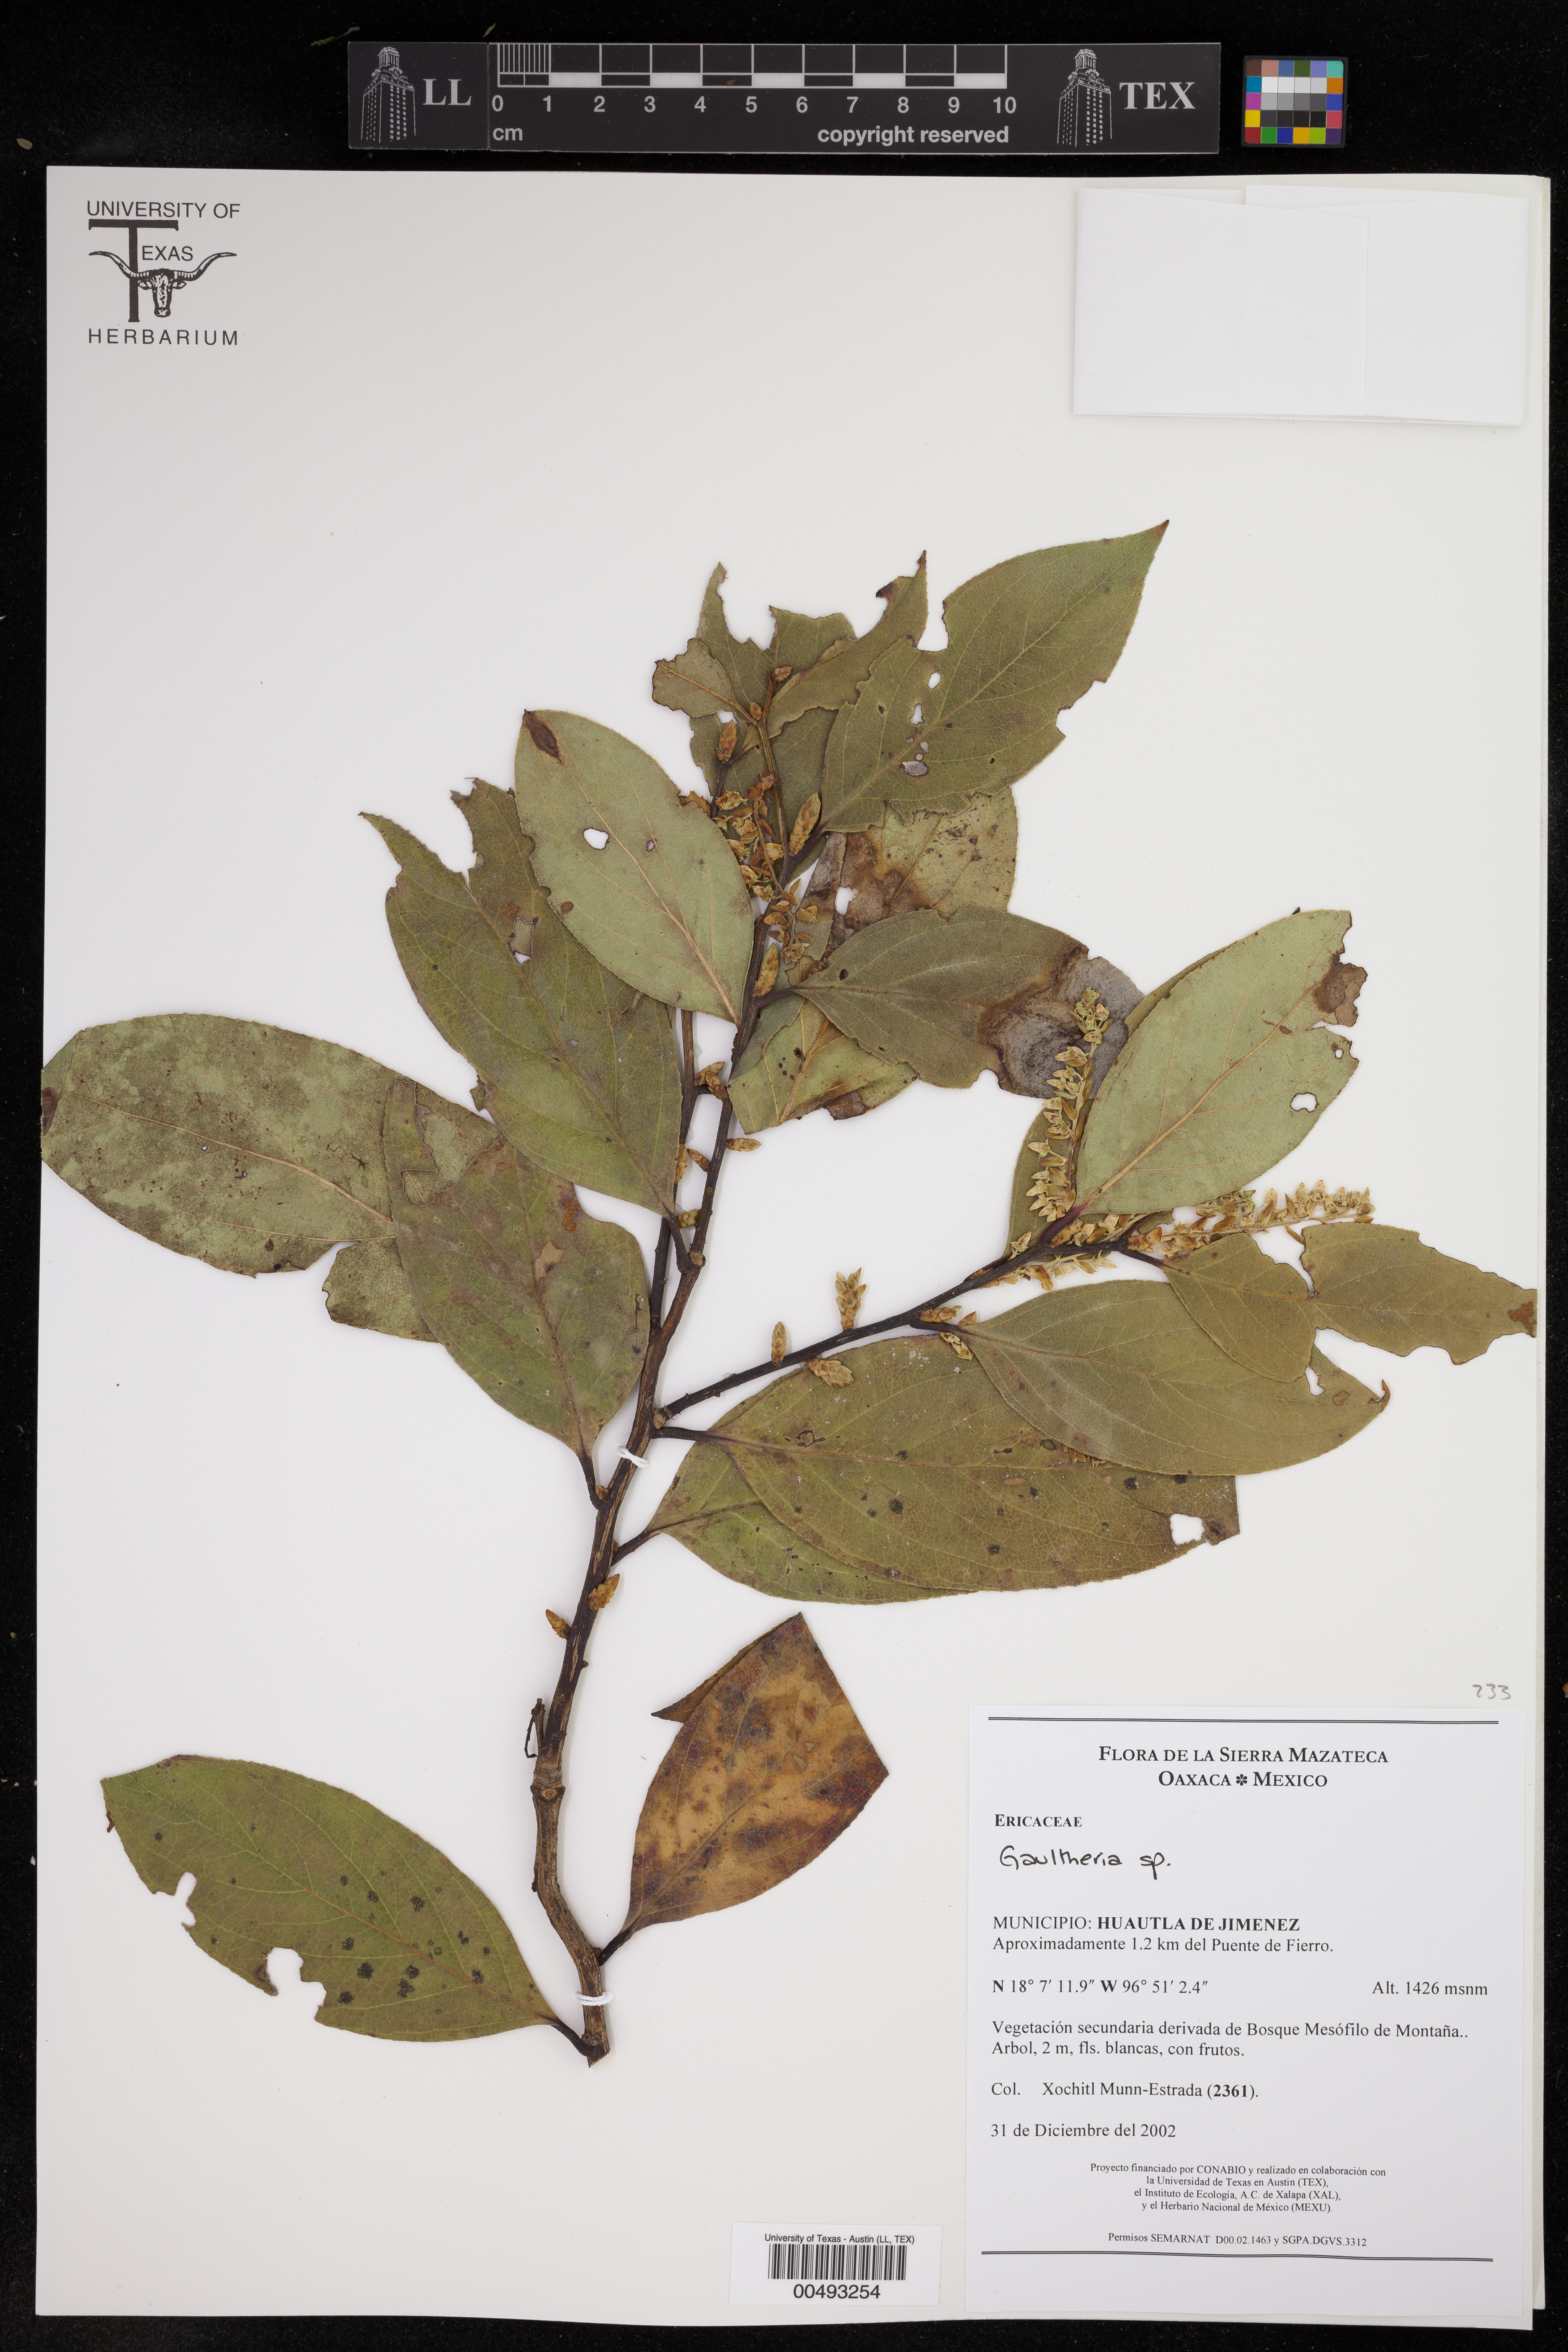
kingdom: Plantae
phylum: Tracheophyta
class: Magnoliopsida
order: Lamiales
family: Verbenaceae
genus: Verbena
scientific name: Verbena
